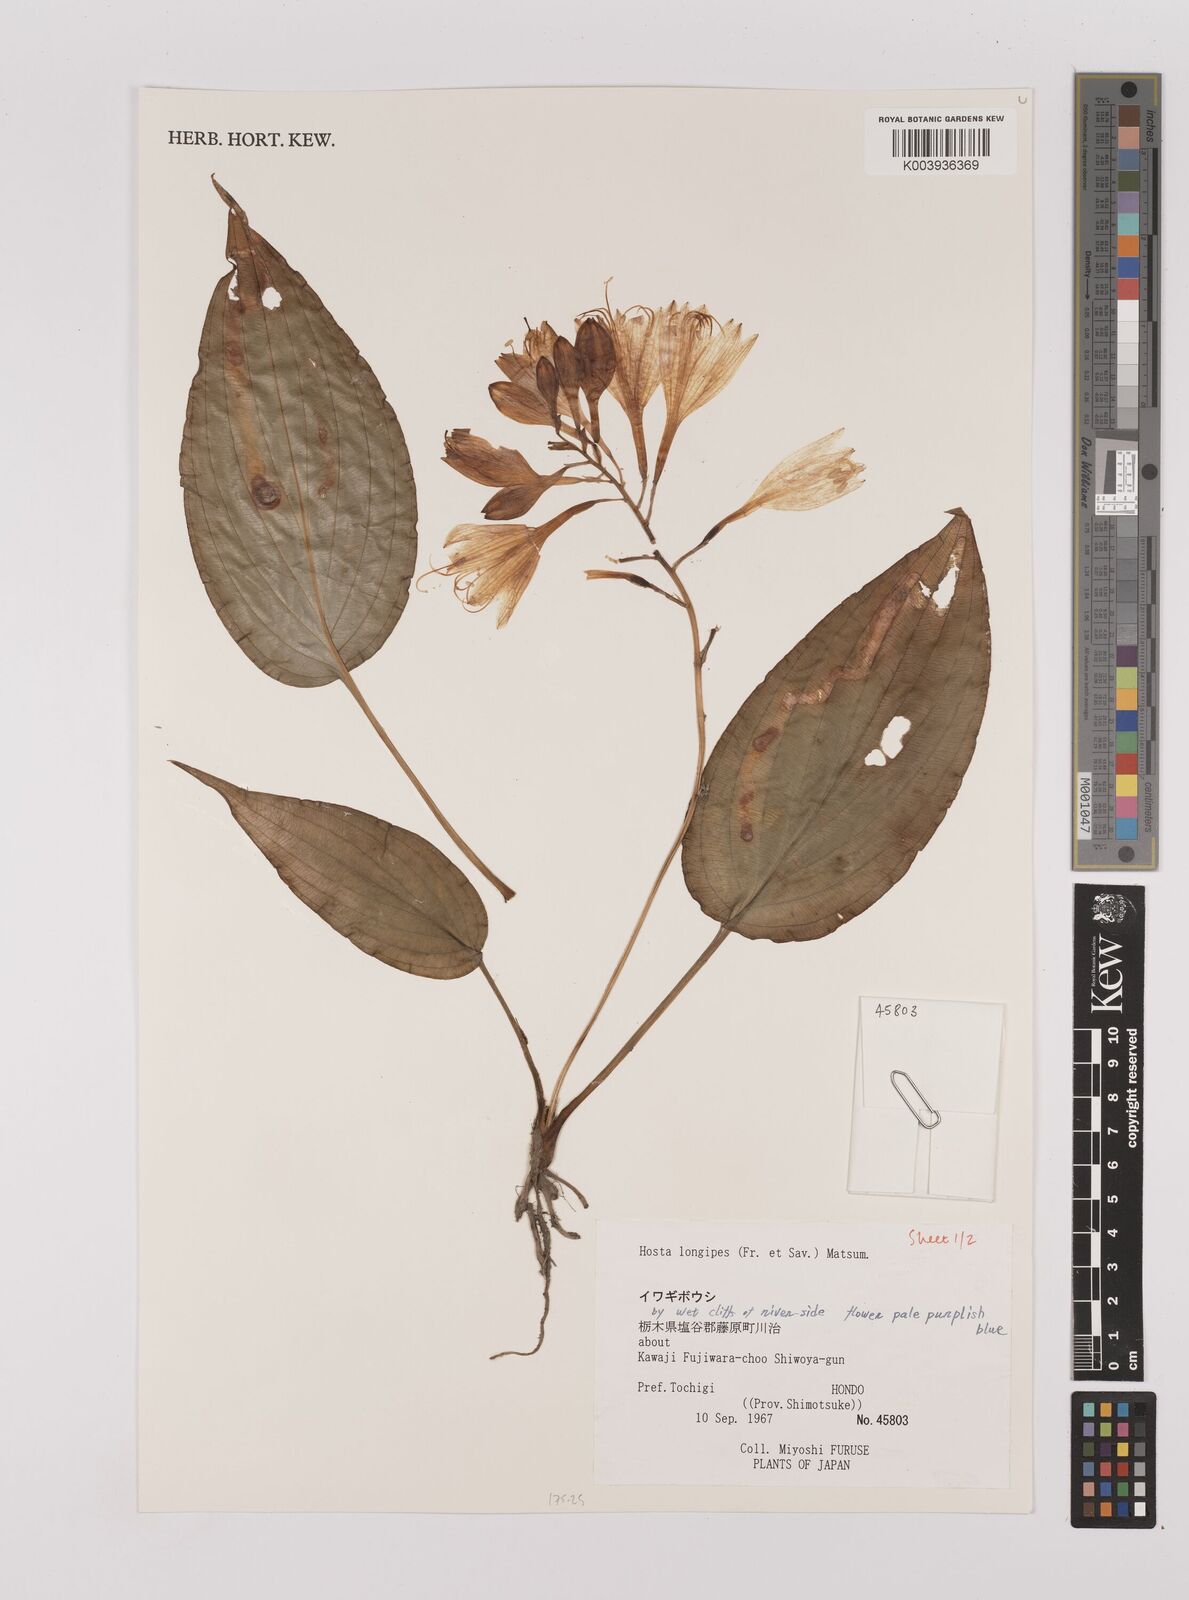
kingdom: Plantae
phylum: Tracheophyta
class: Liliopsida
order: Asparagales
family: Asparagaceae
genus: Hosta
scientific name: Hosta
